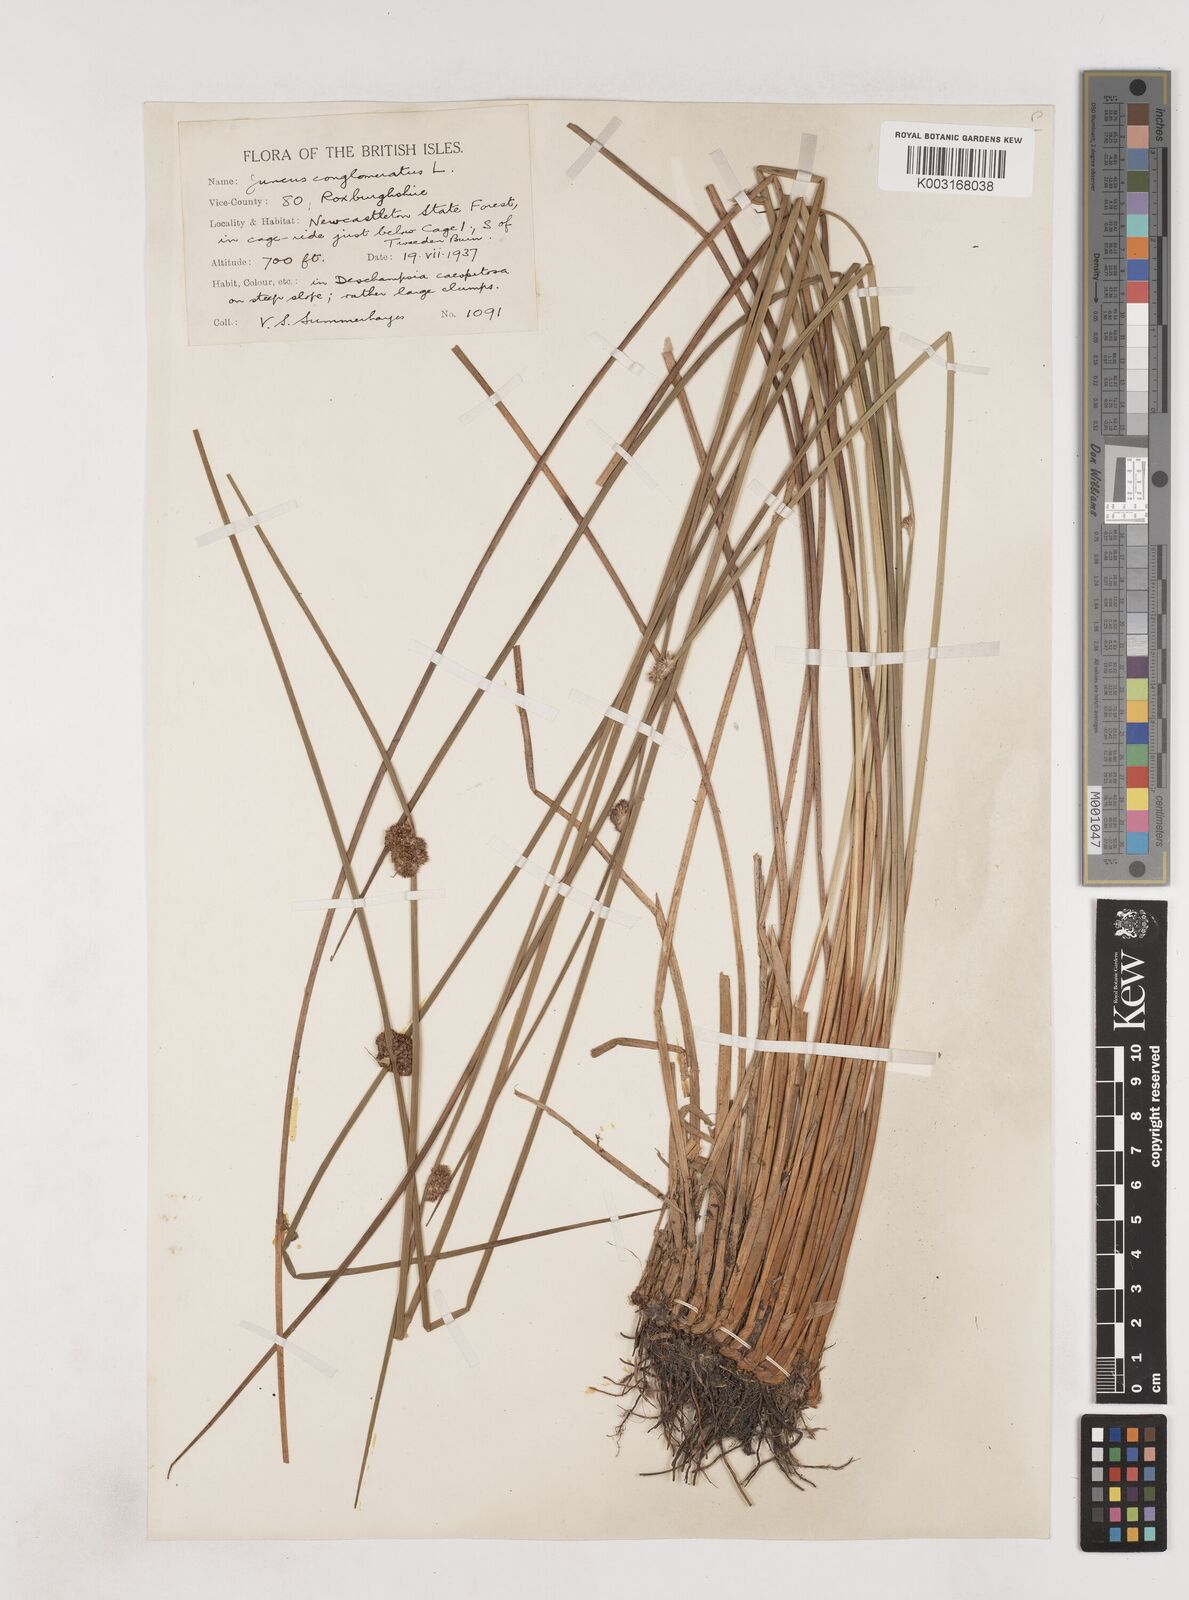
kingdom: Plantae
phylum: Tracheophyta
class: Liliopsida
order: Poales
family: Juncaceae
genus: Juncus
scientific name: Juncus conglomeratus
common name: Compact rush
